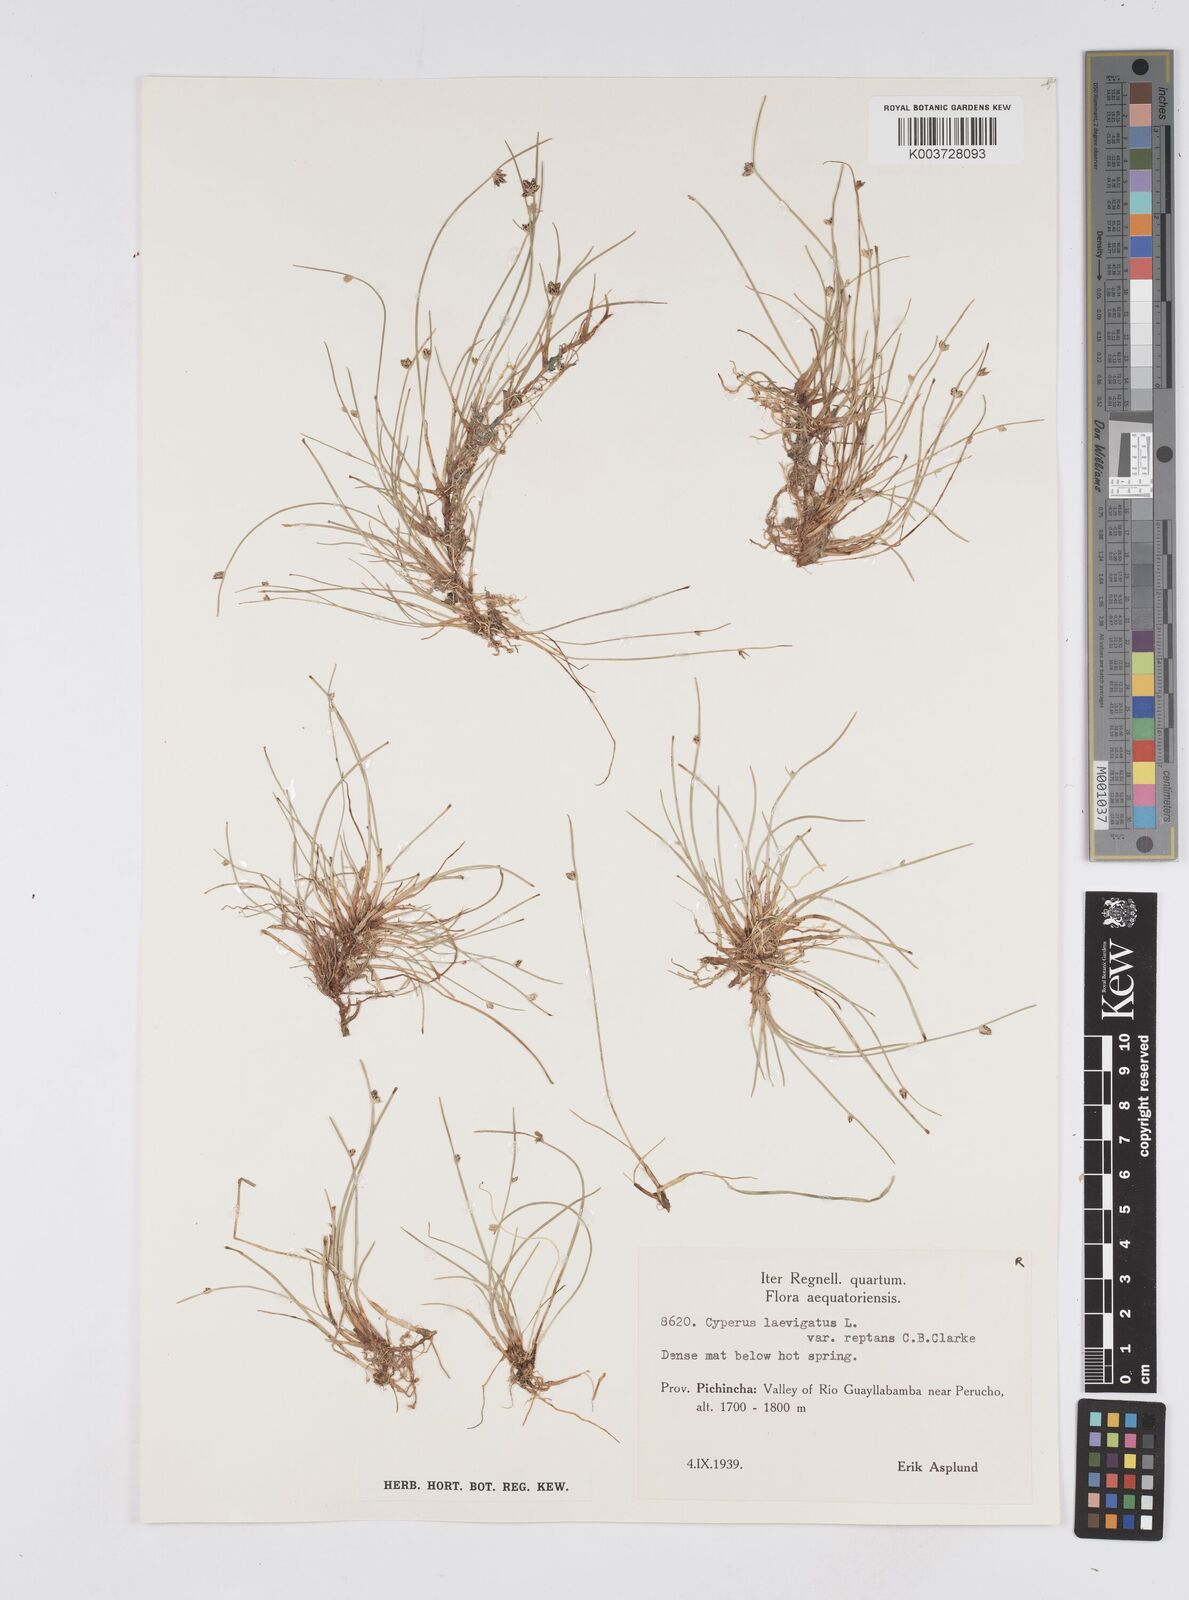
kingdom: Plantae
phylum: Tracheophyta
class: Liliopsida
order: Poales
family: Cyperaceae
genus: Cyperus
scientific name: Cyperus laevigatus
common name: Smooth flat sedge
